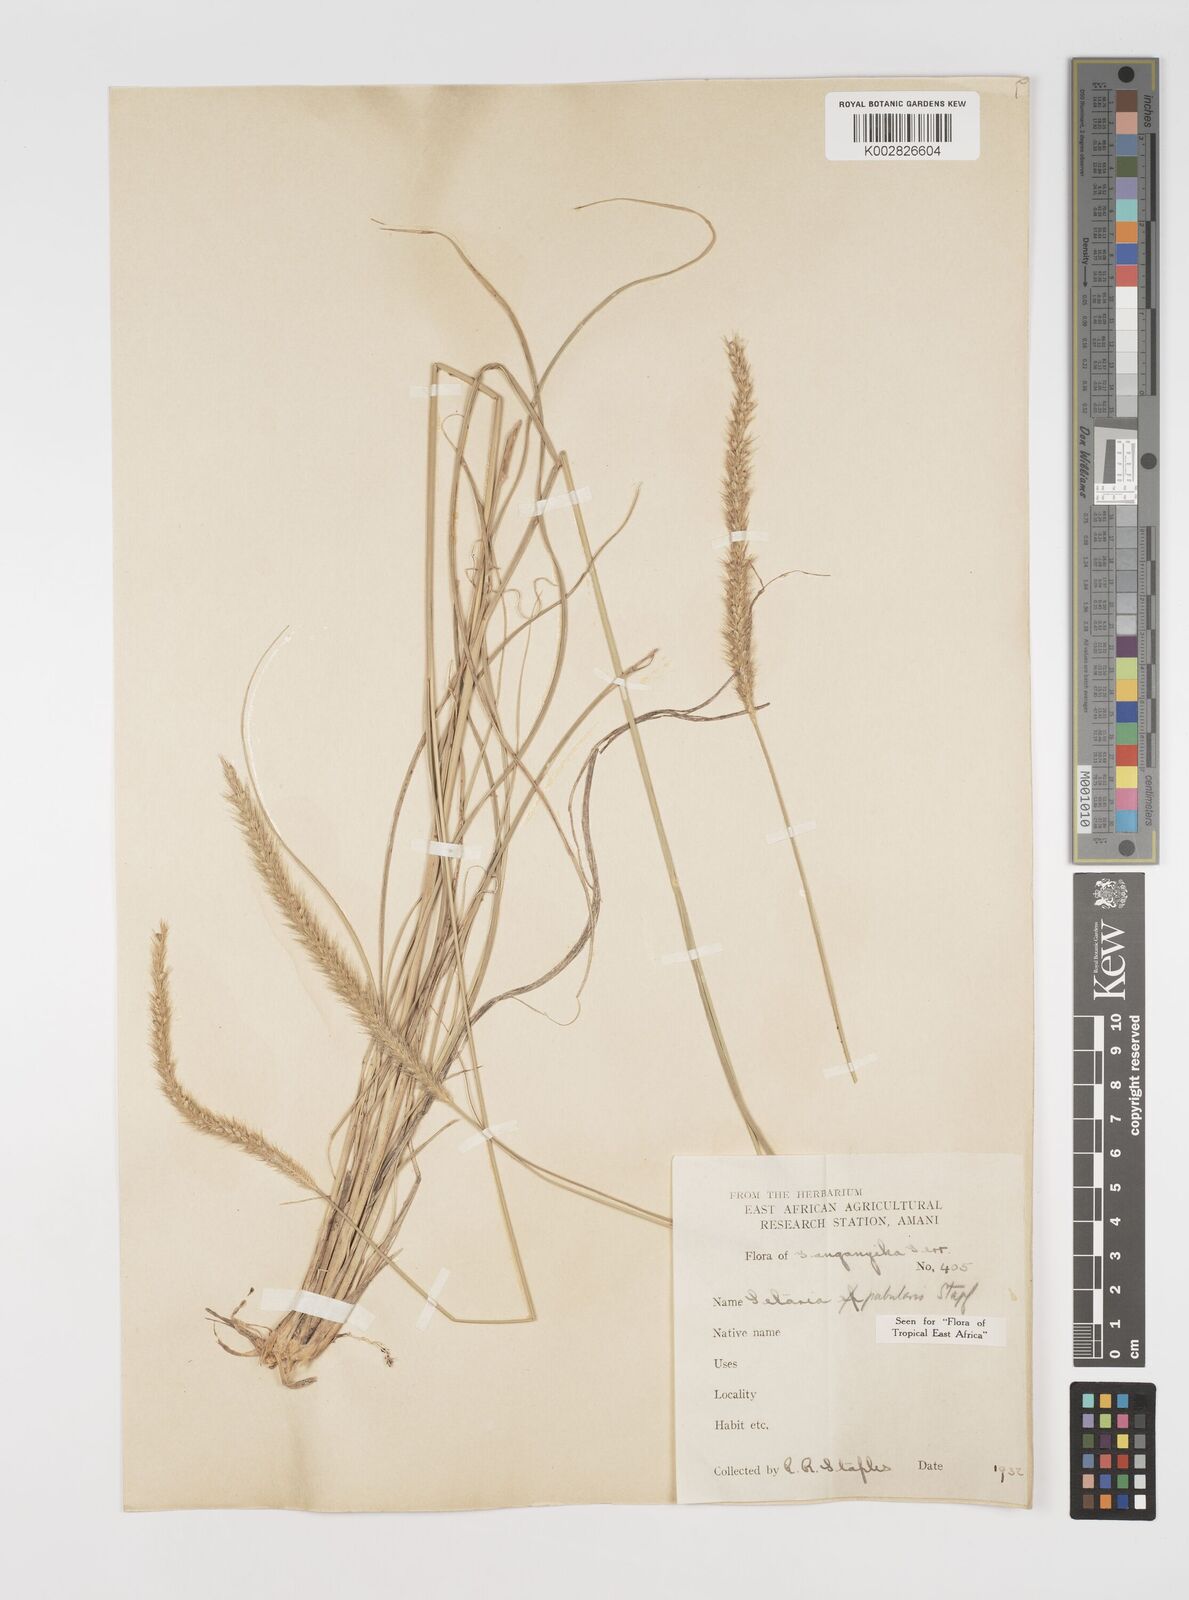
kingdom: Plantae
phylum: Tracheophyta
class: Liliopsida
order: Poales
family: Poaceae
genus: Setaria
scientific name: Setaria incrassata
